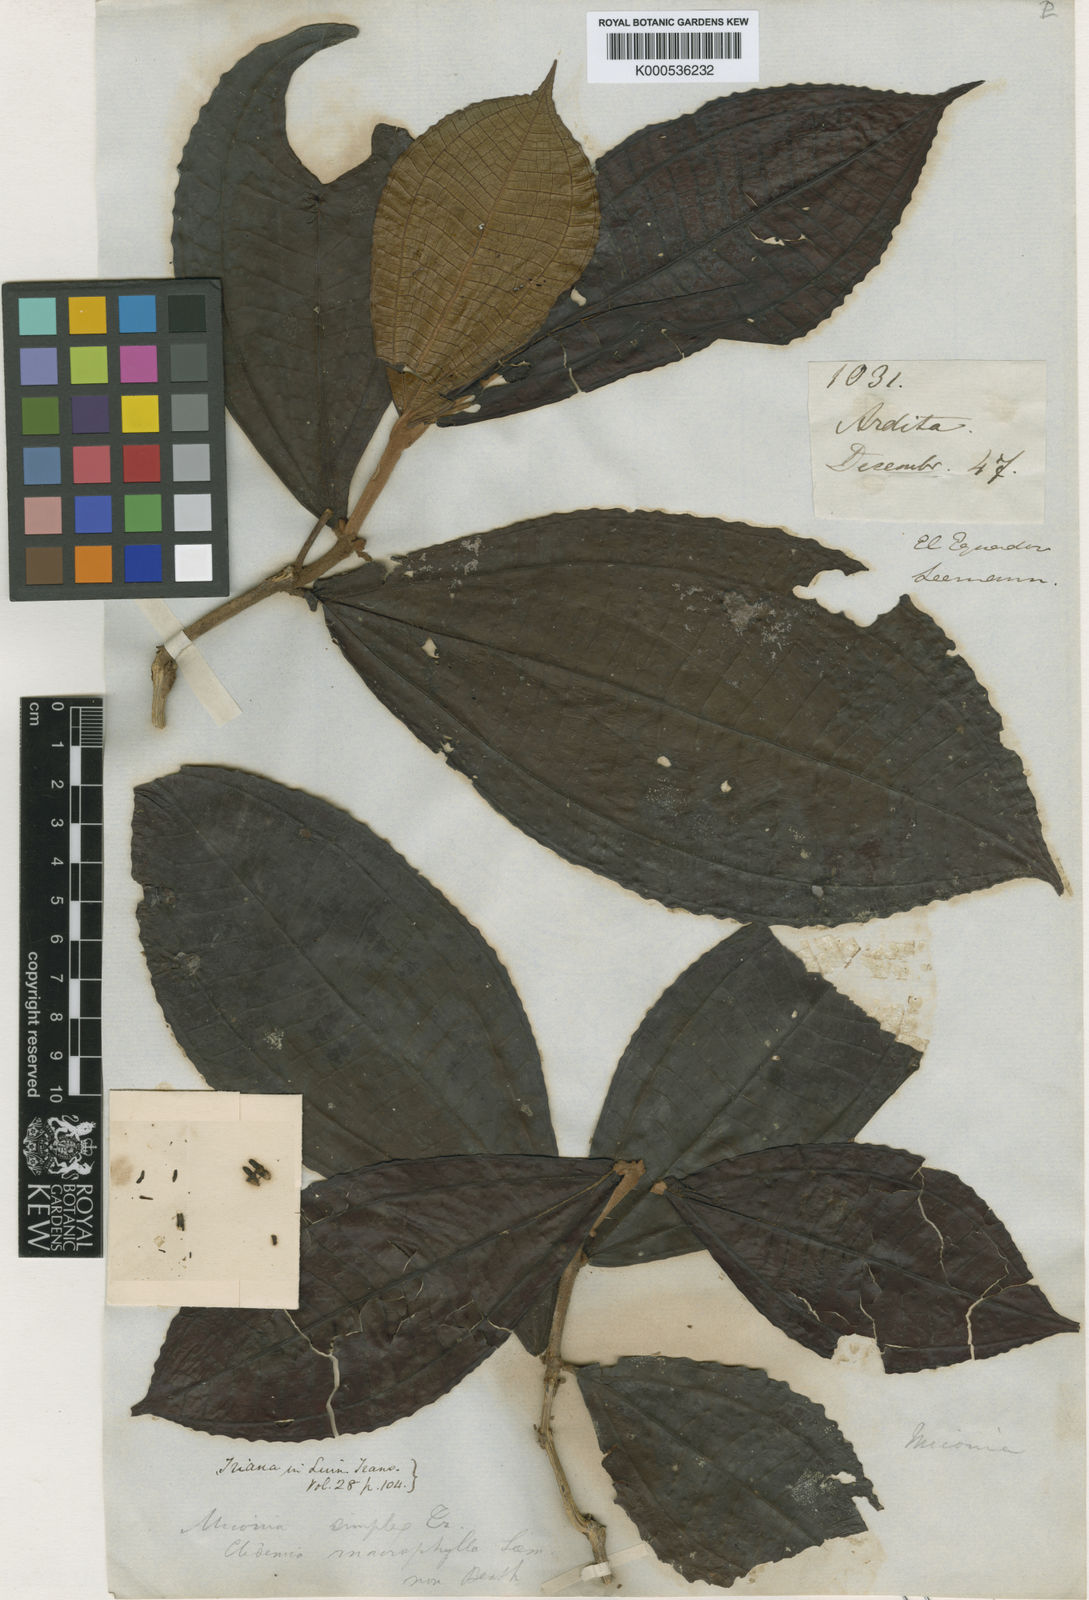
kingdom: Plantae
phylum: Tracheophyta
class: Magnoliopsida
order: Myrtales
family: Melastomataceae
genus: Miconia
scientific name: Miconia simplex
